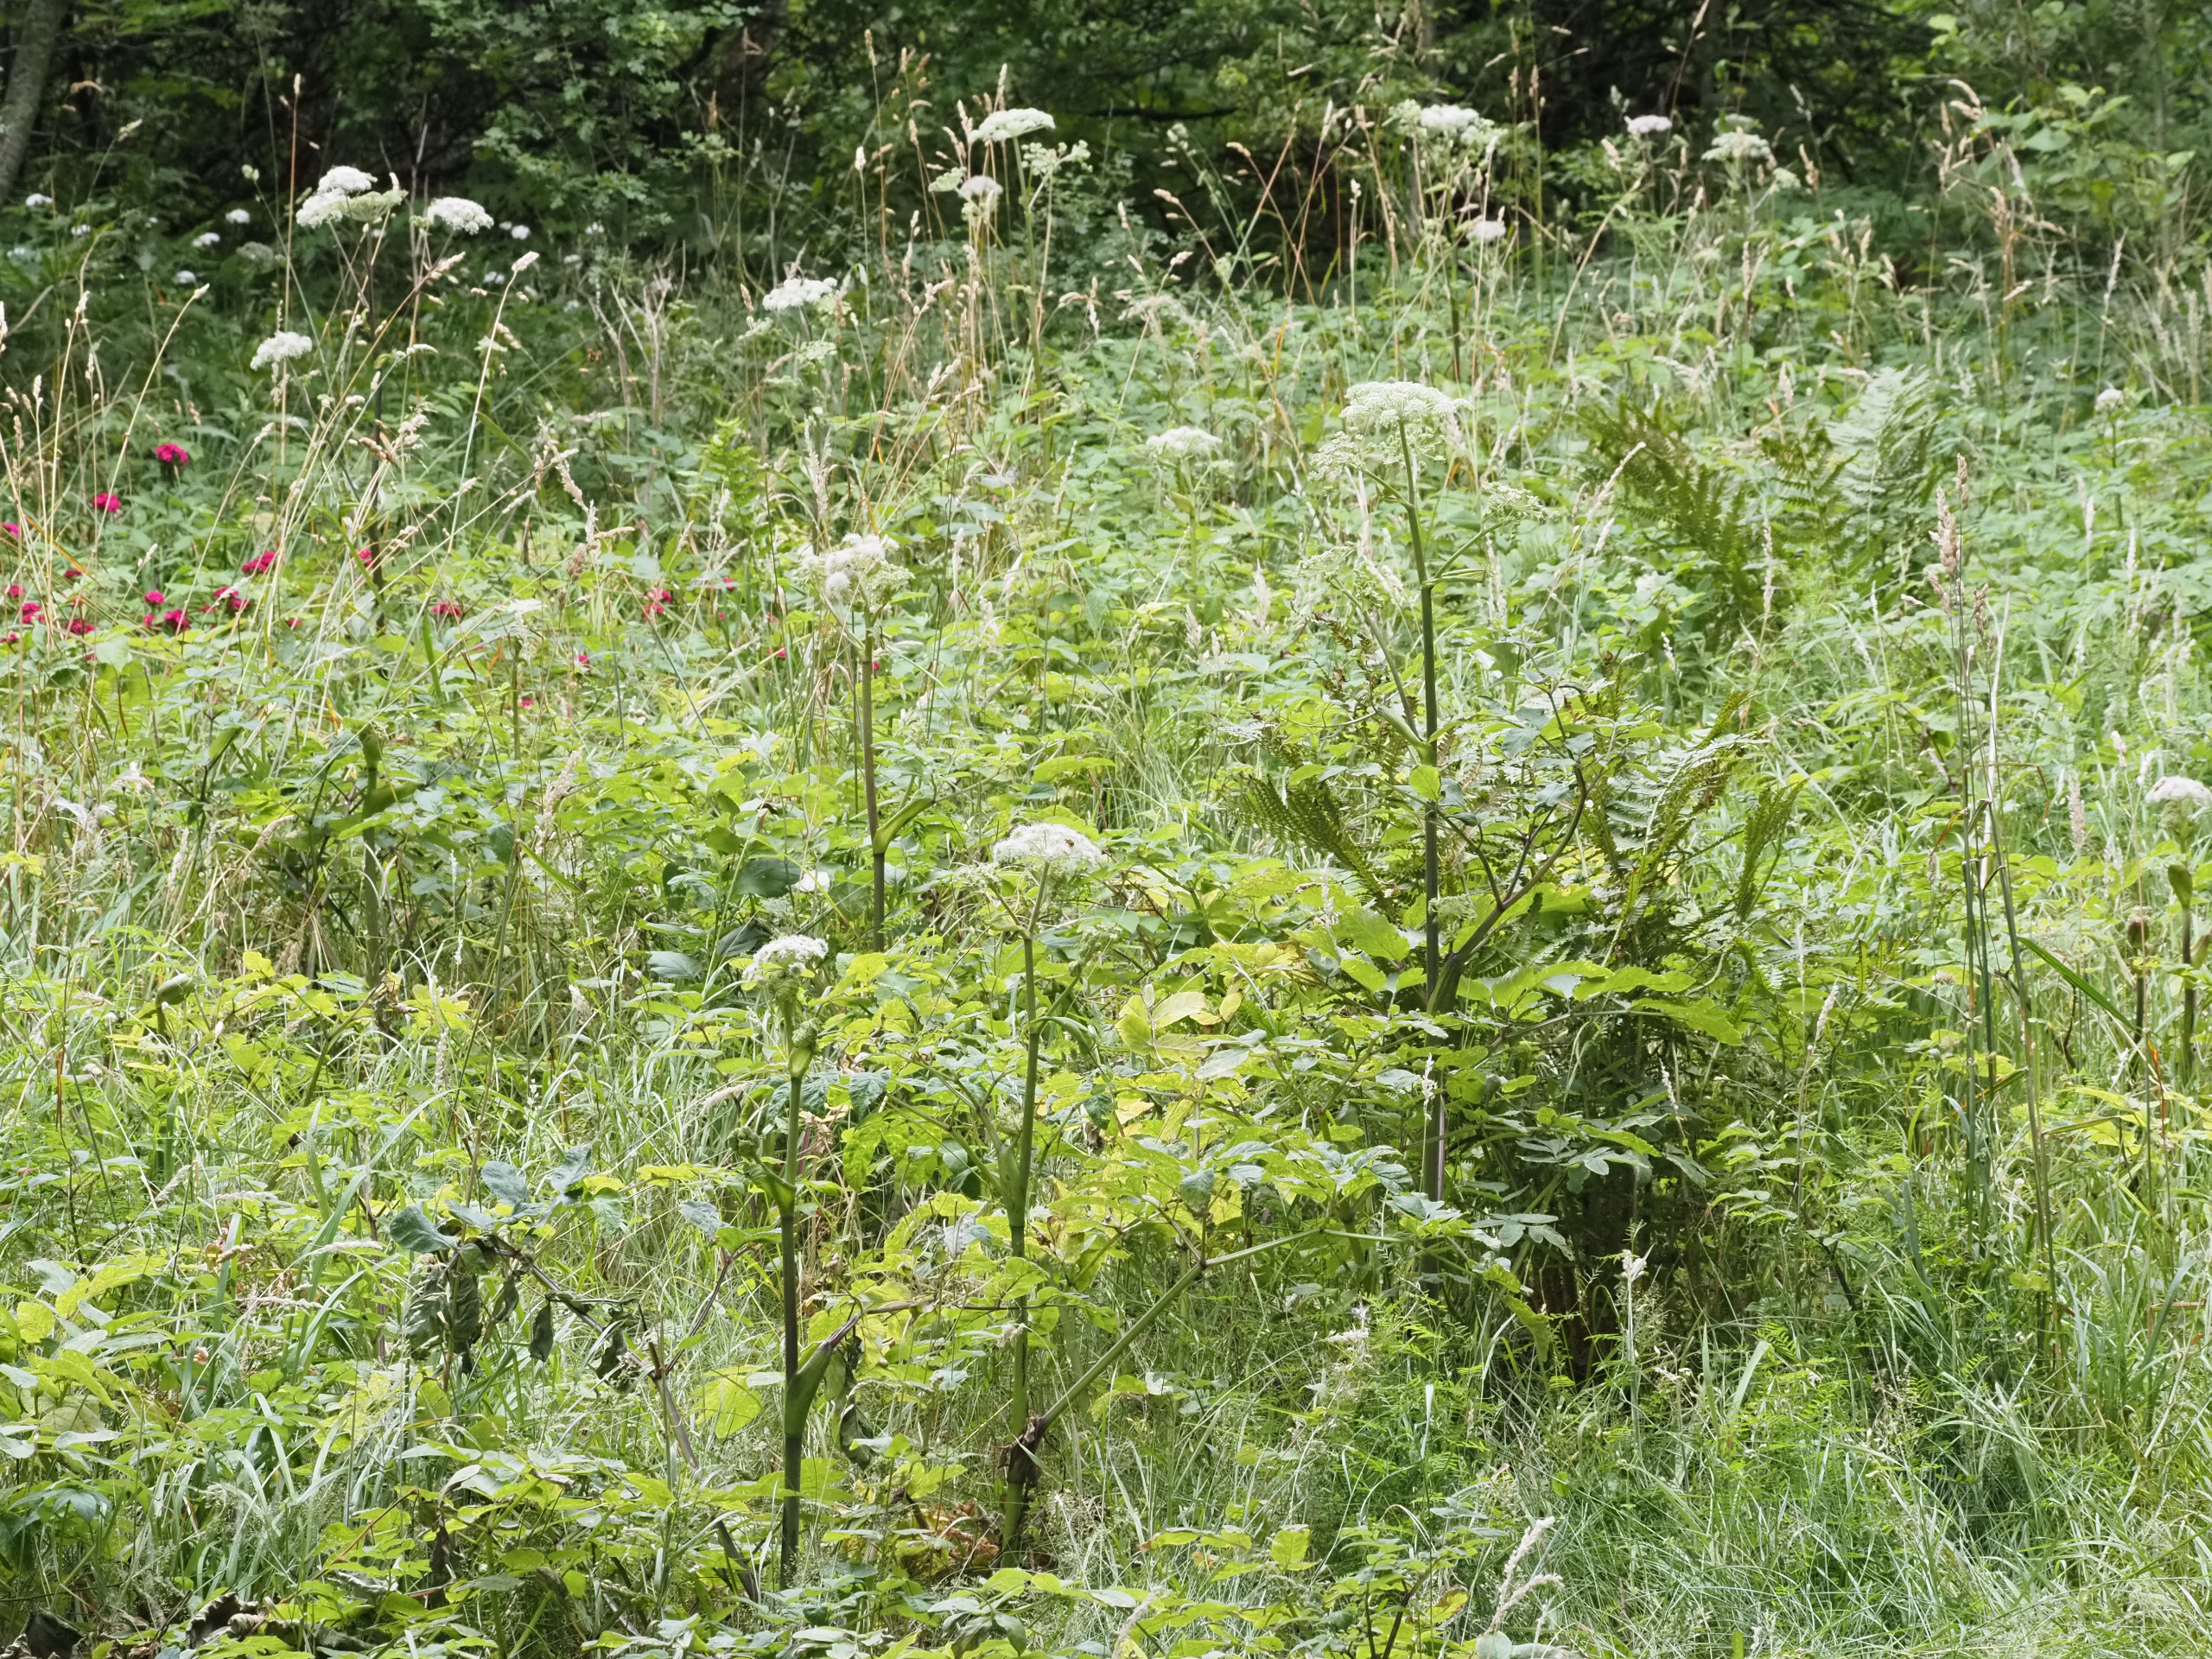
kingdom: Plantae
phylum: Tracheophyta
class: Magnoliopsida
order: Apiales
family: Apiaceae
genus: Angelica
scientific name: Angelica sylvestris
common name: Angelik
